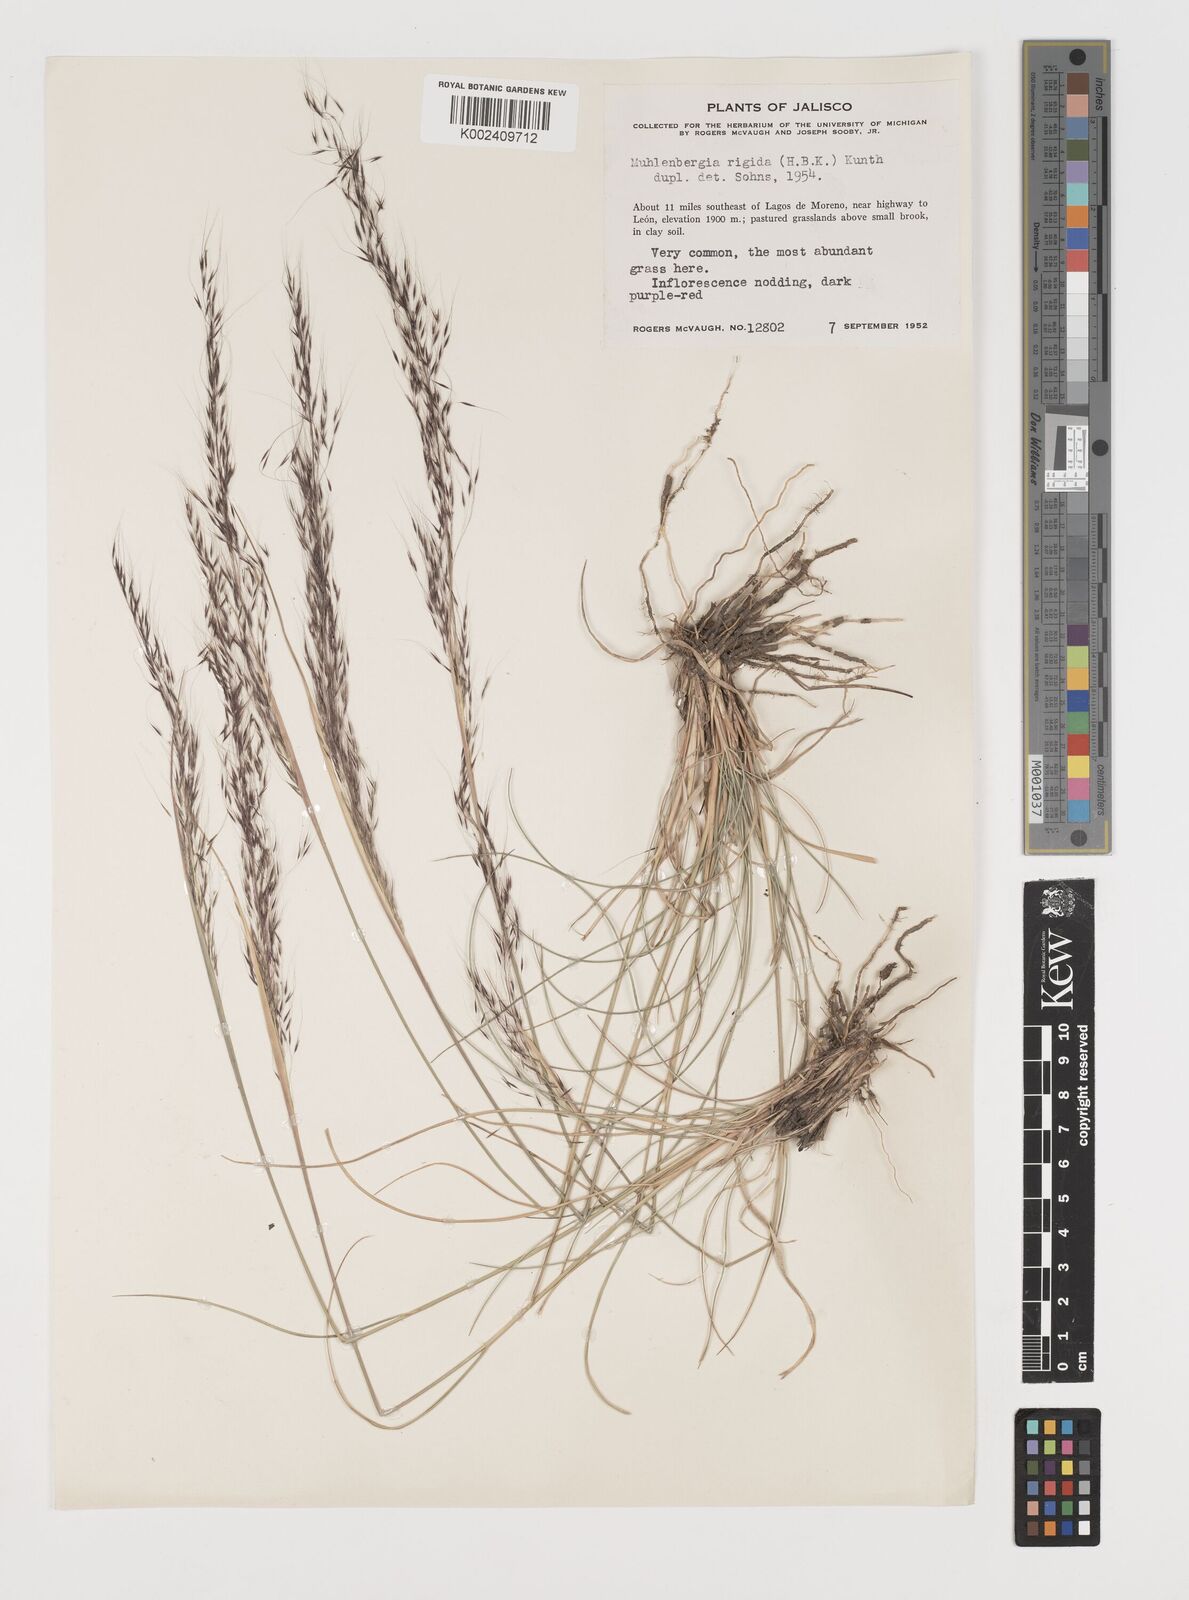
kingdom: Plantae
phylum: Tracheophyta
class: Liliopsida
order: Poales
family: Poaceae
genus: Muhlenbergia
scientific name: Muhlenbergia rigida
